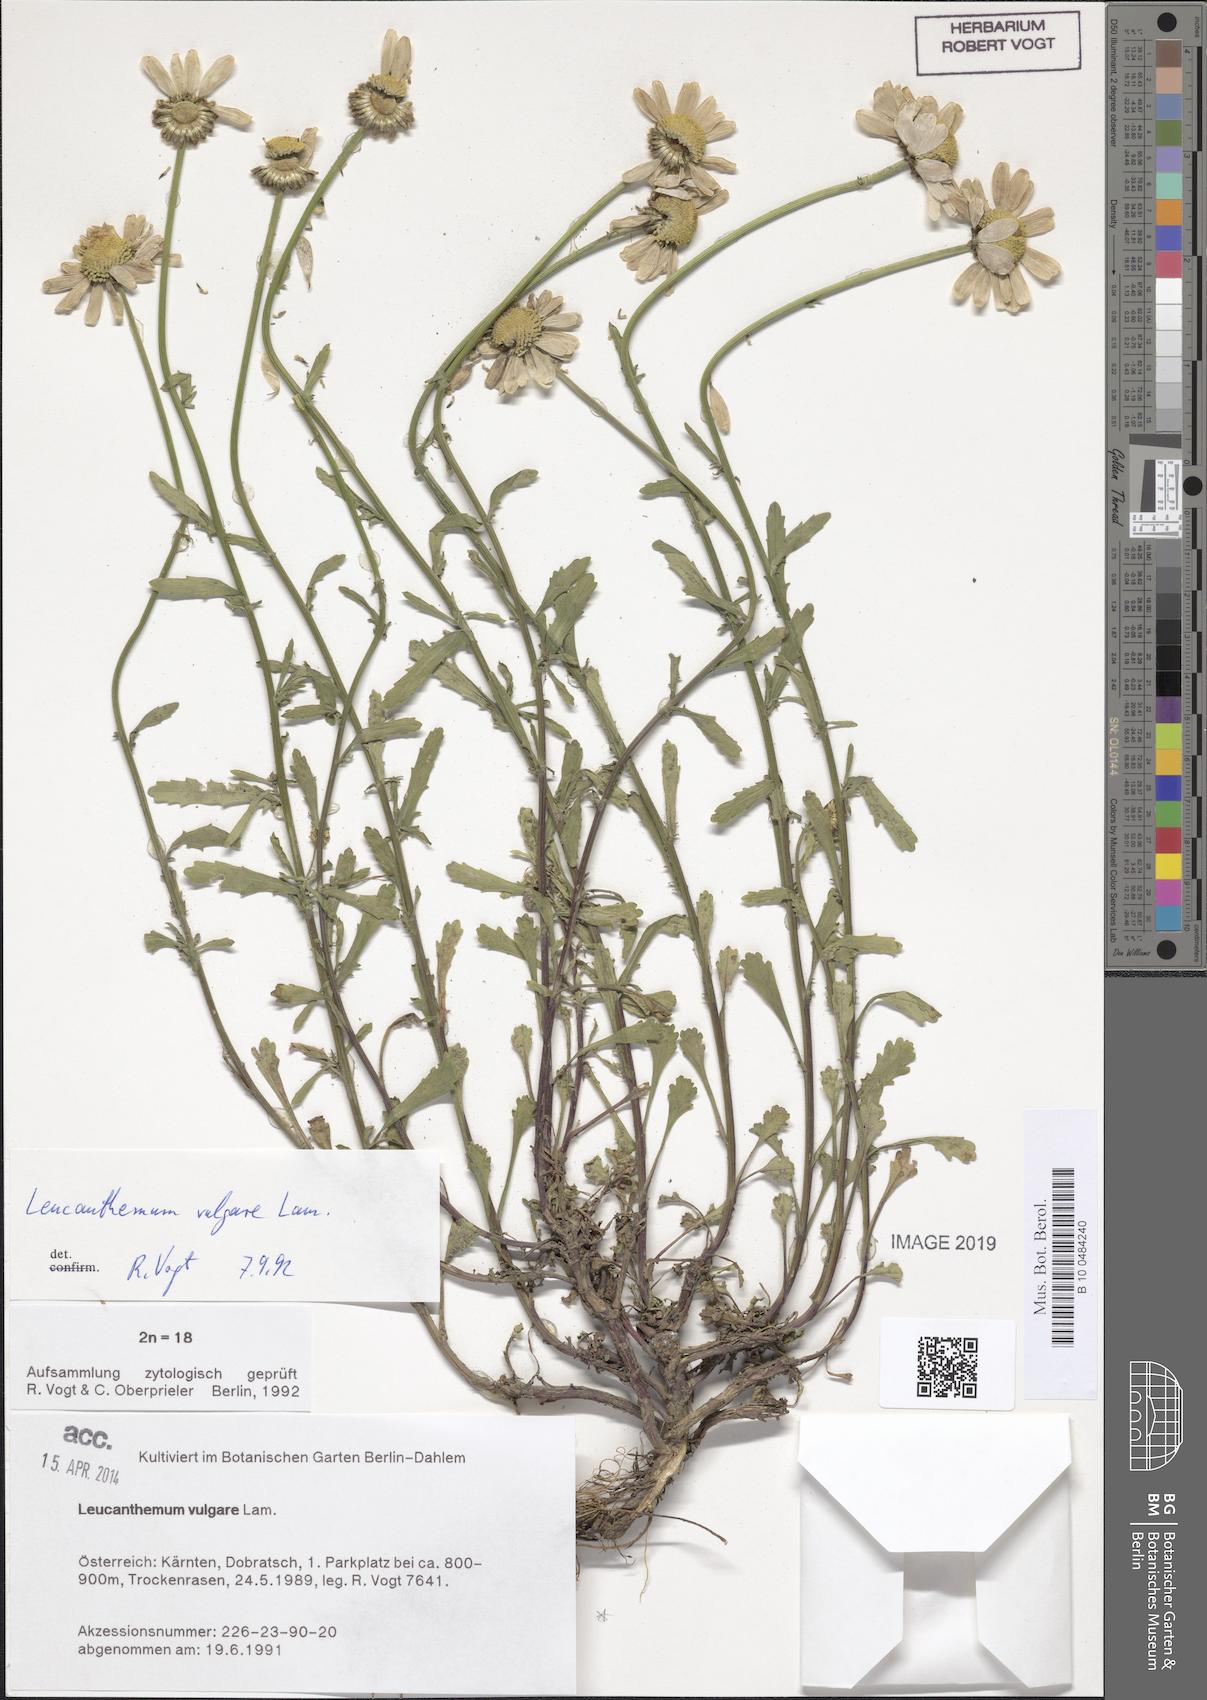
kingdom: Plantae
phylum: Tracheophyta
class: Magnoliopsida
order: Asterales
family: Asteraceae
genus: Leucanthemum
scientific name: Leucanthemum vulgare
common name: Oxeye daisy
